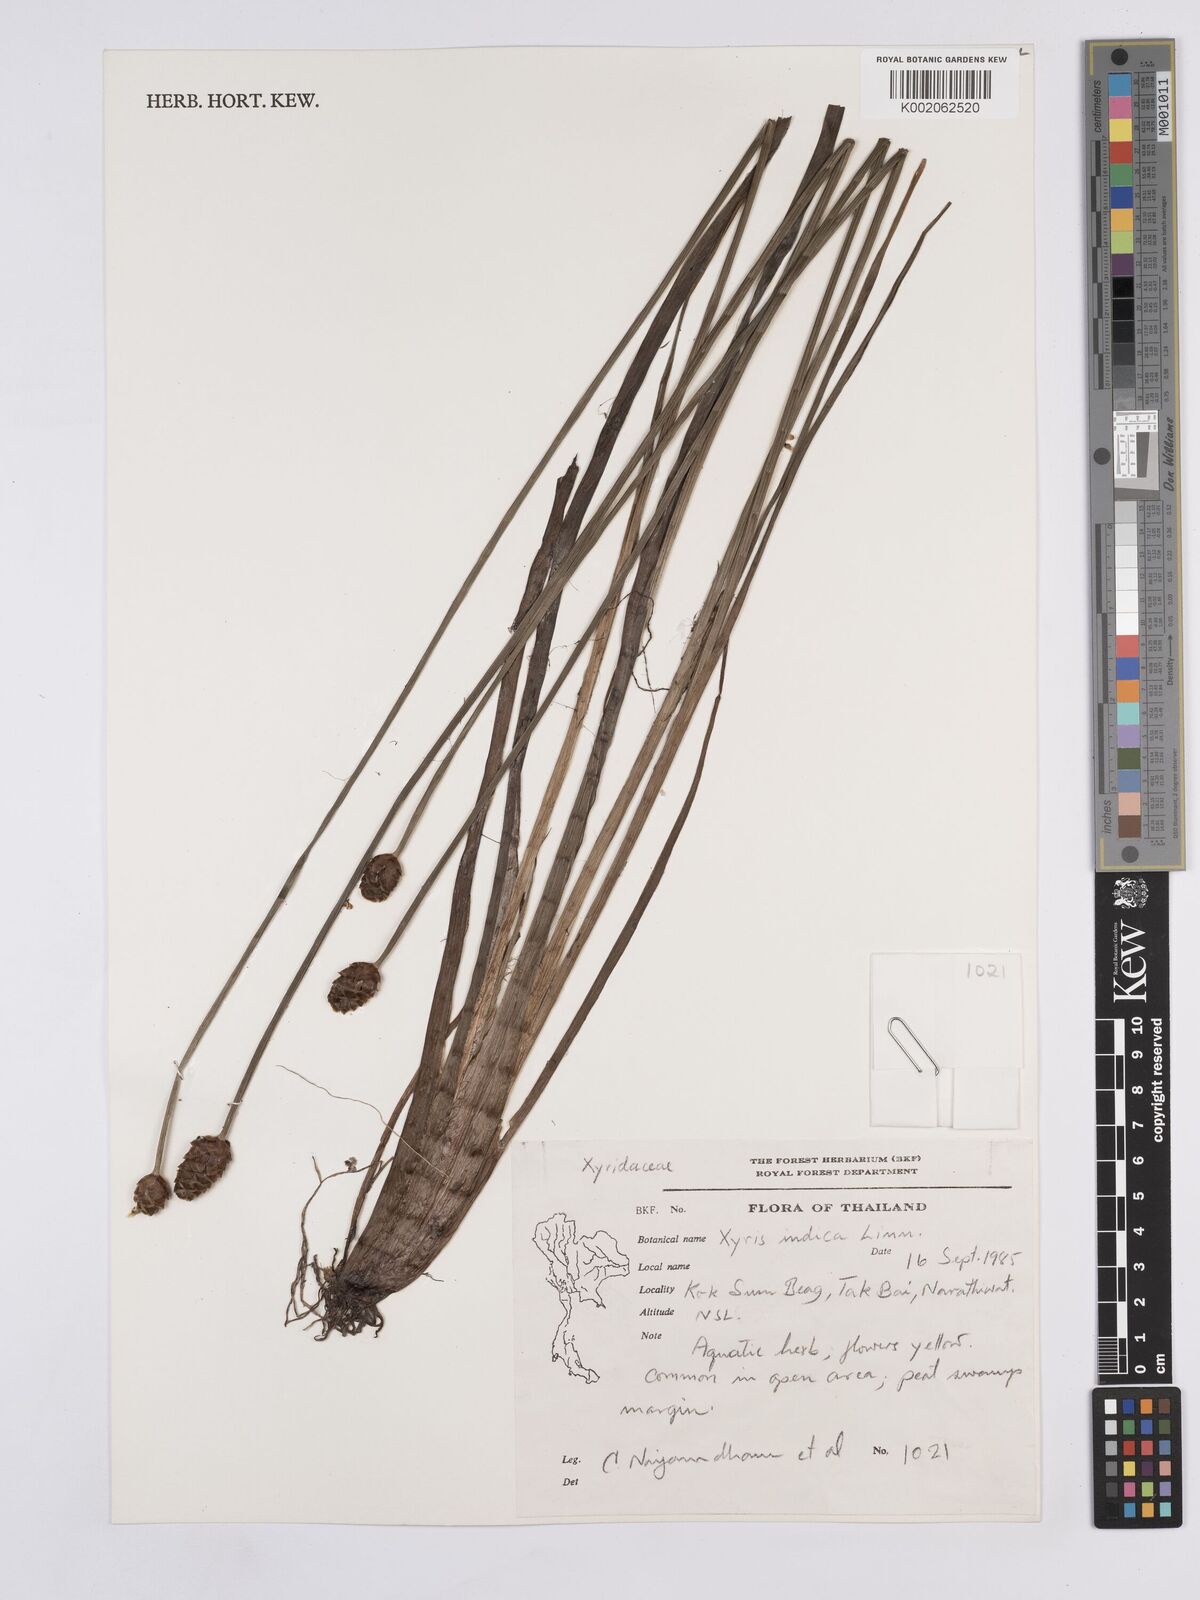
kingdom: Plantae
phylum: Tracheophyta
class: Liliopsida
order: Poales
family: Xyridaceae
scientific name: Xyridaceae
